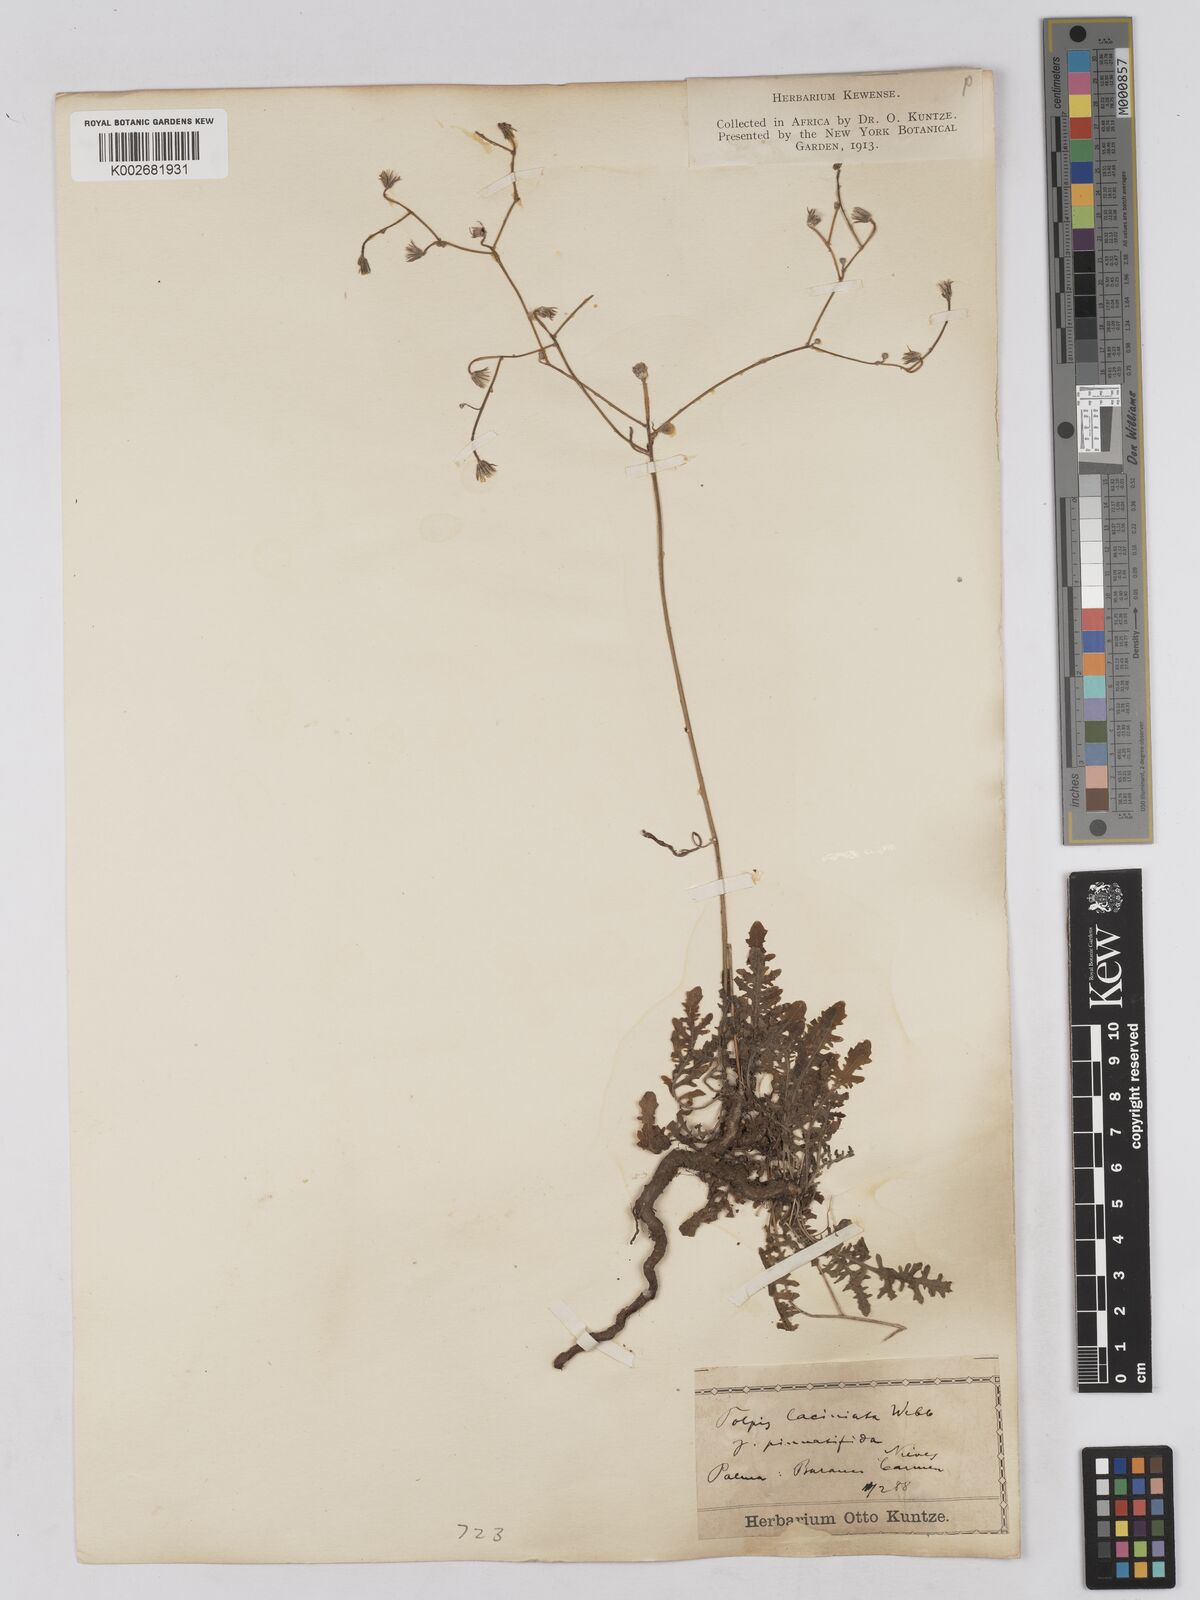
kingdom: Plantae
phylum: Tracheophyta
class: Magnoliopsida
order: Asterales
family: Asteraceae
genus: Tolpis
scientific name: Tolpis laciniata
